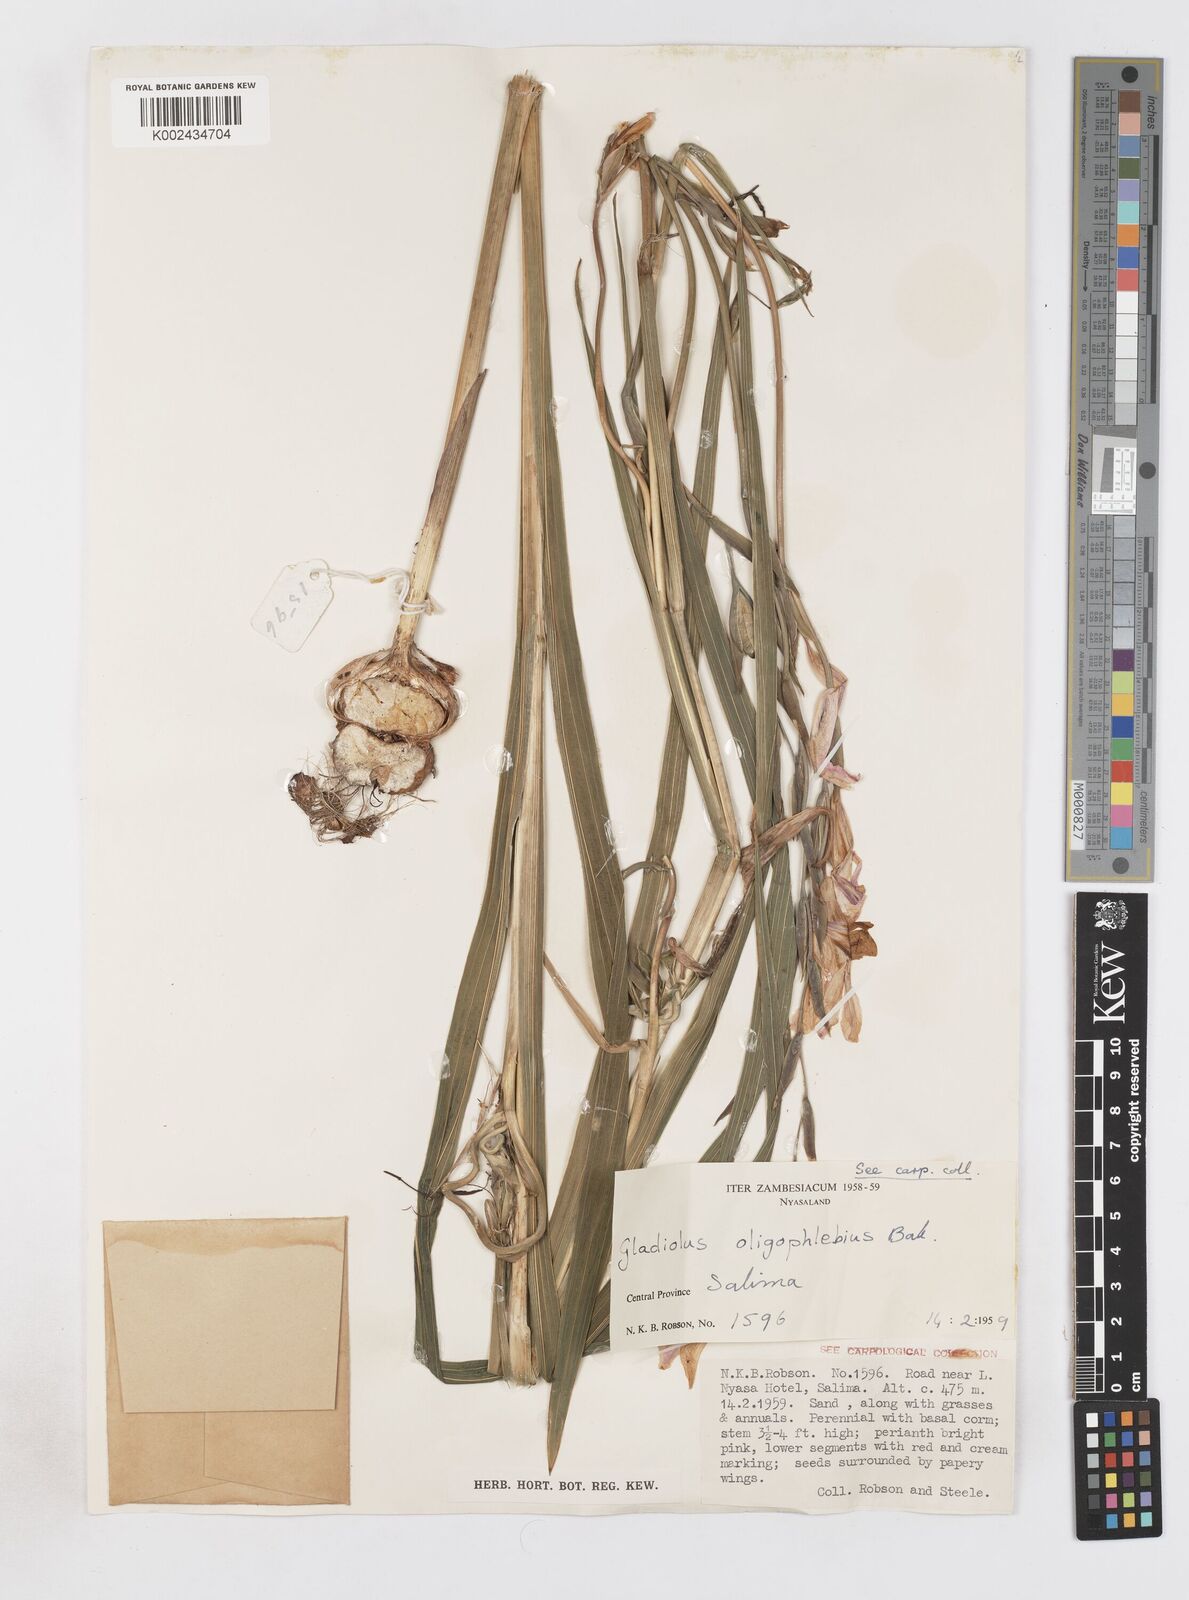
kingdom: Plantae
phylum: Tracheophyta
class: Liliopsida
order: Asparagales
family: Iridaceae
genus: Gladiolus
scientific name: Gladiolus oligophlebius
